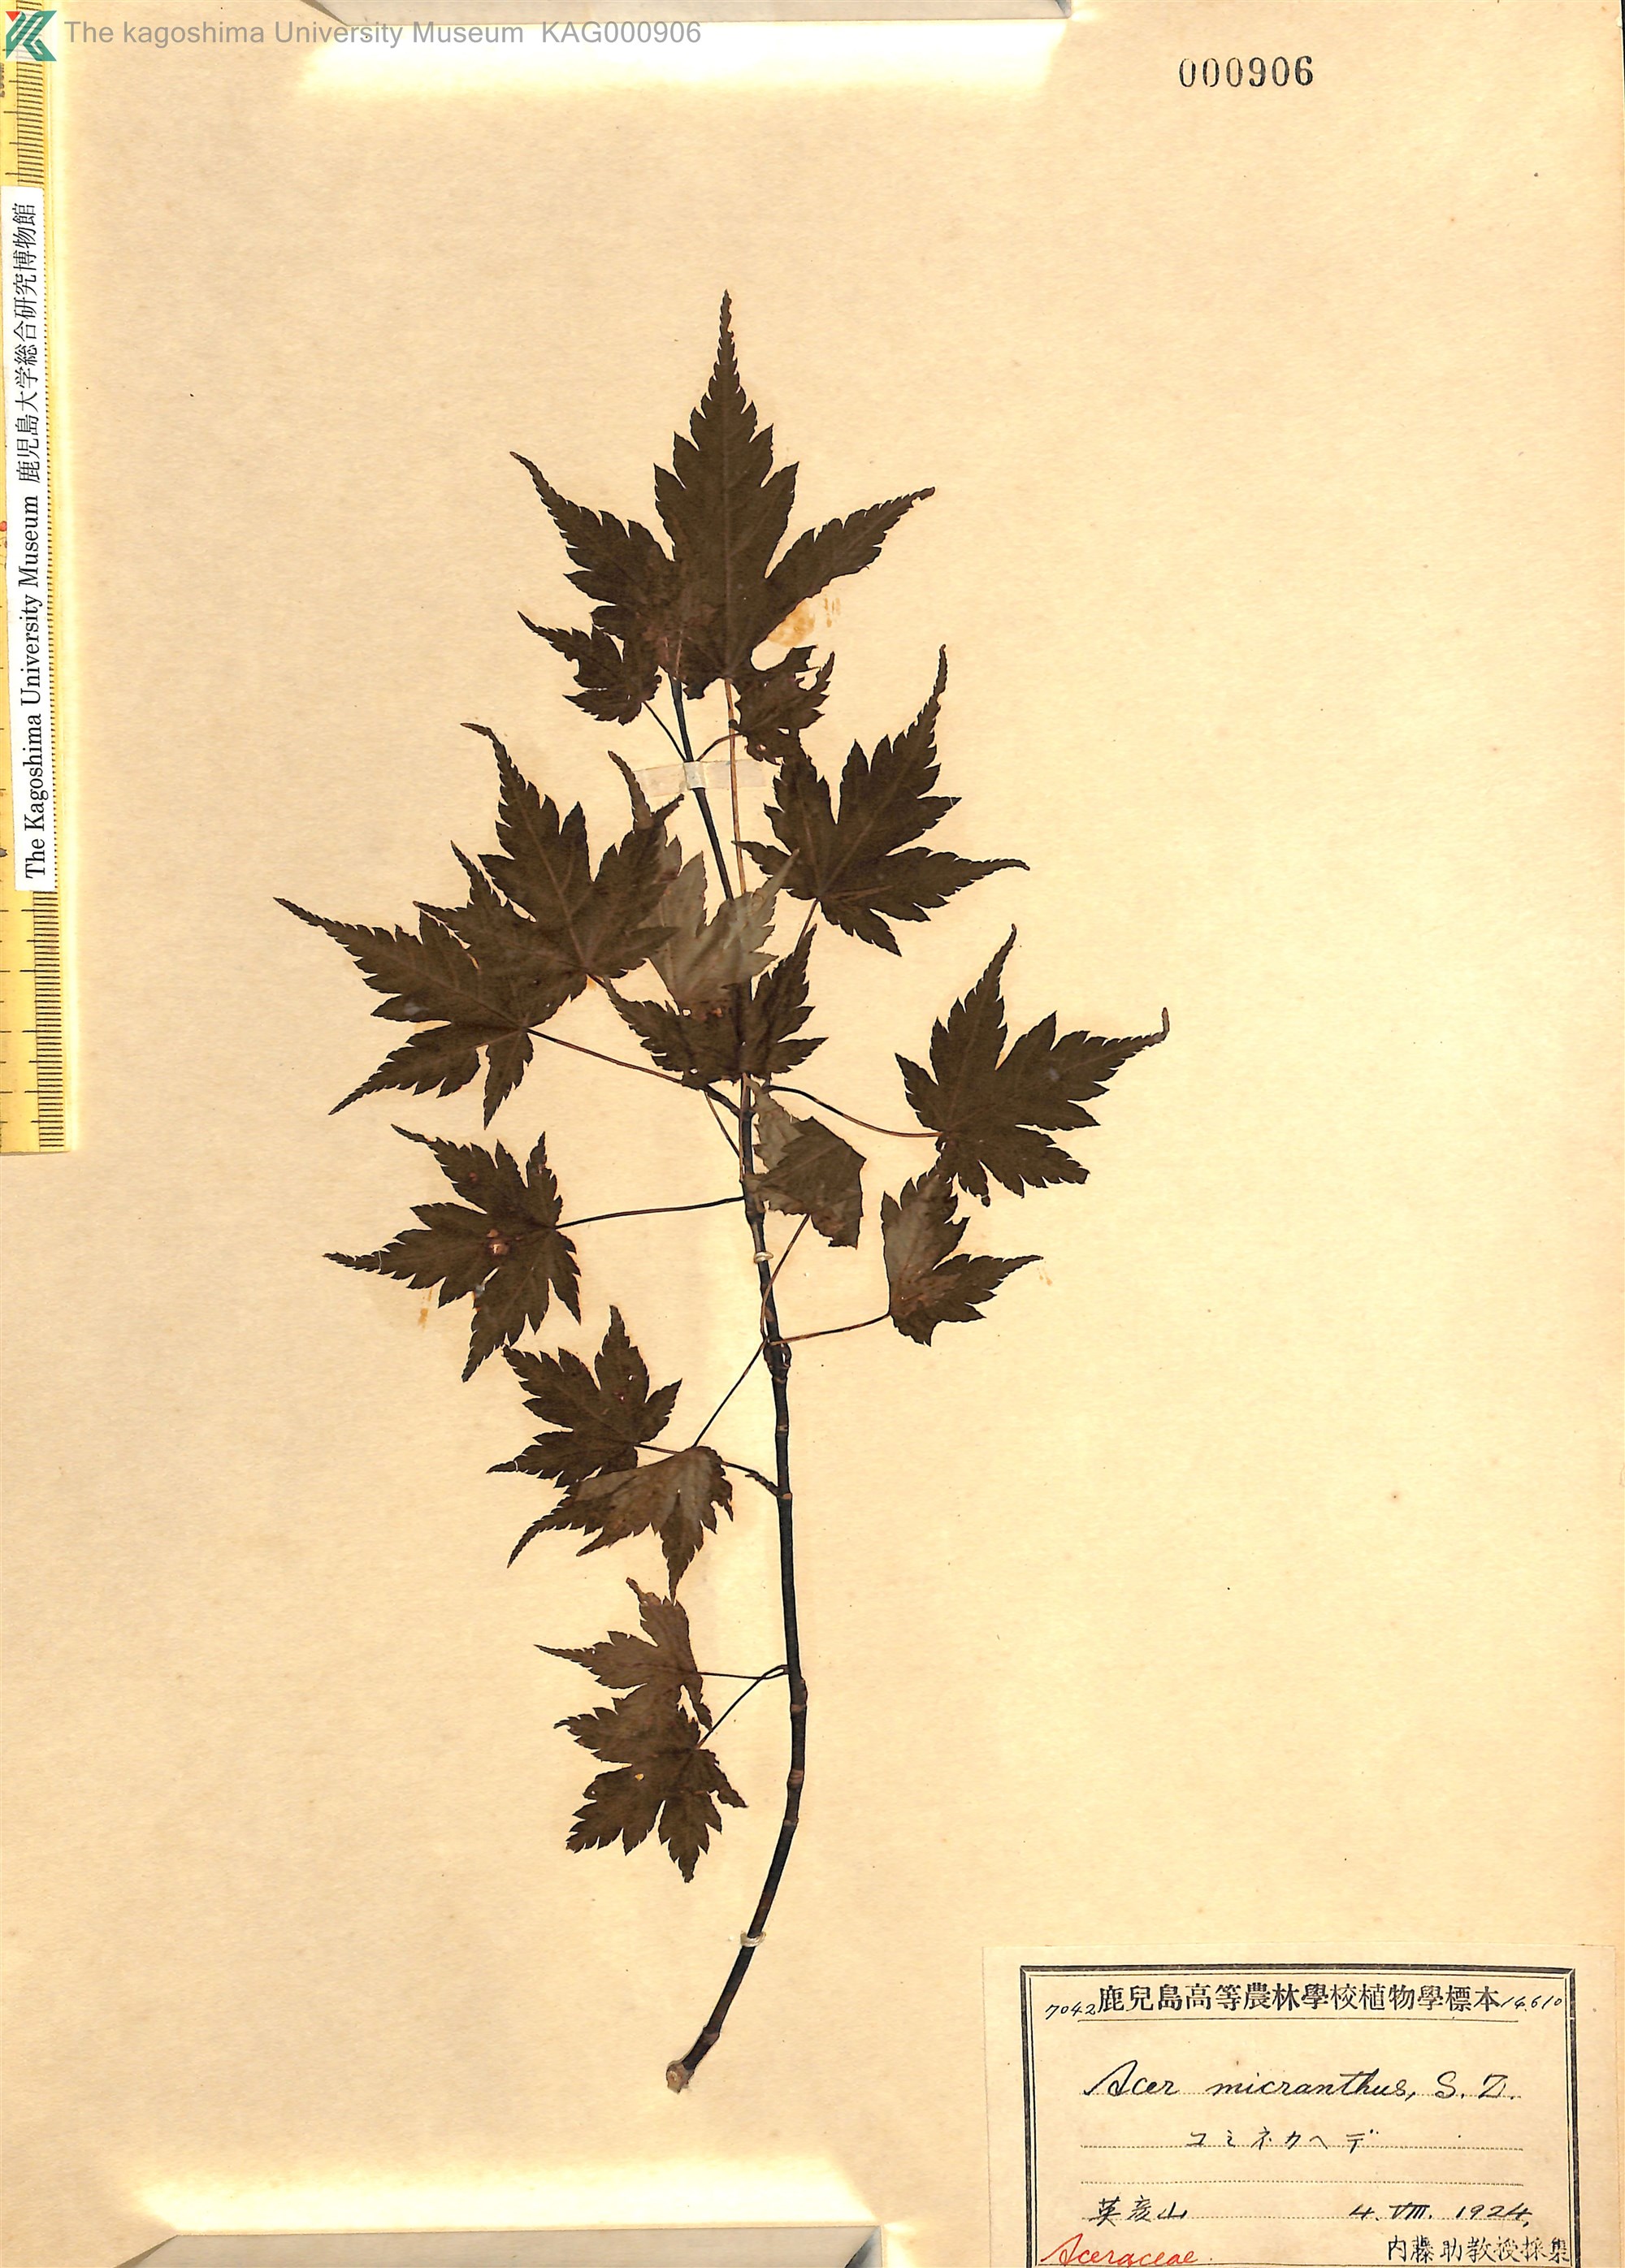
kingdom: Plantae
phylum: Tracheophyta
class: Magnoliopsida
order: Sapindales
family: Sapindaceae
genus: Acer
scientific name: Acer micranthum
